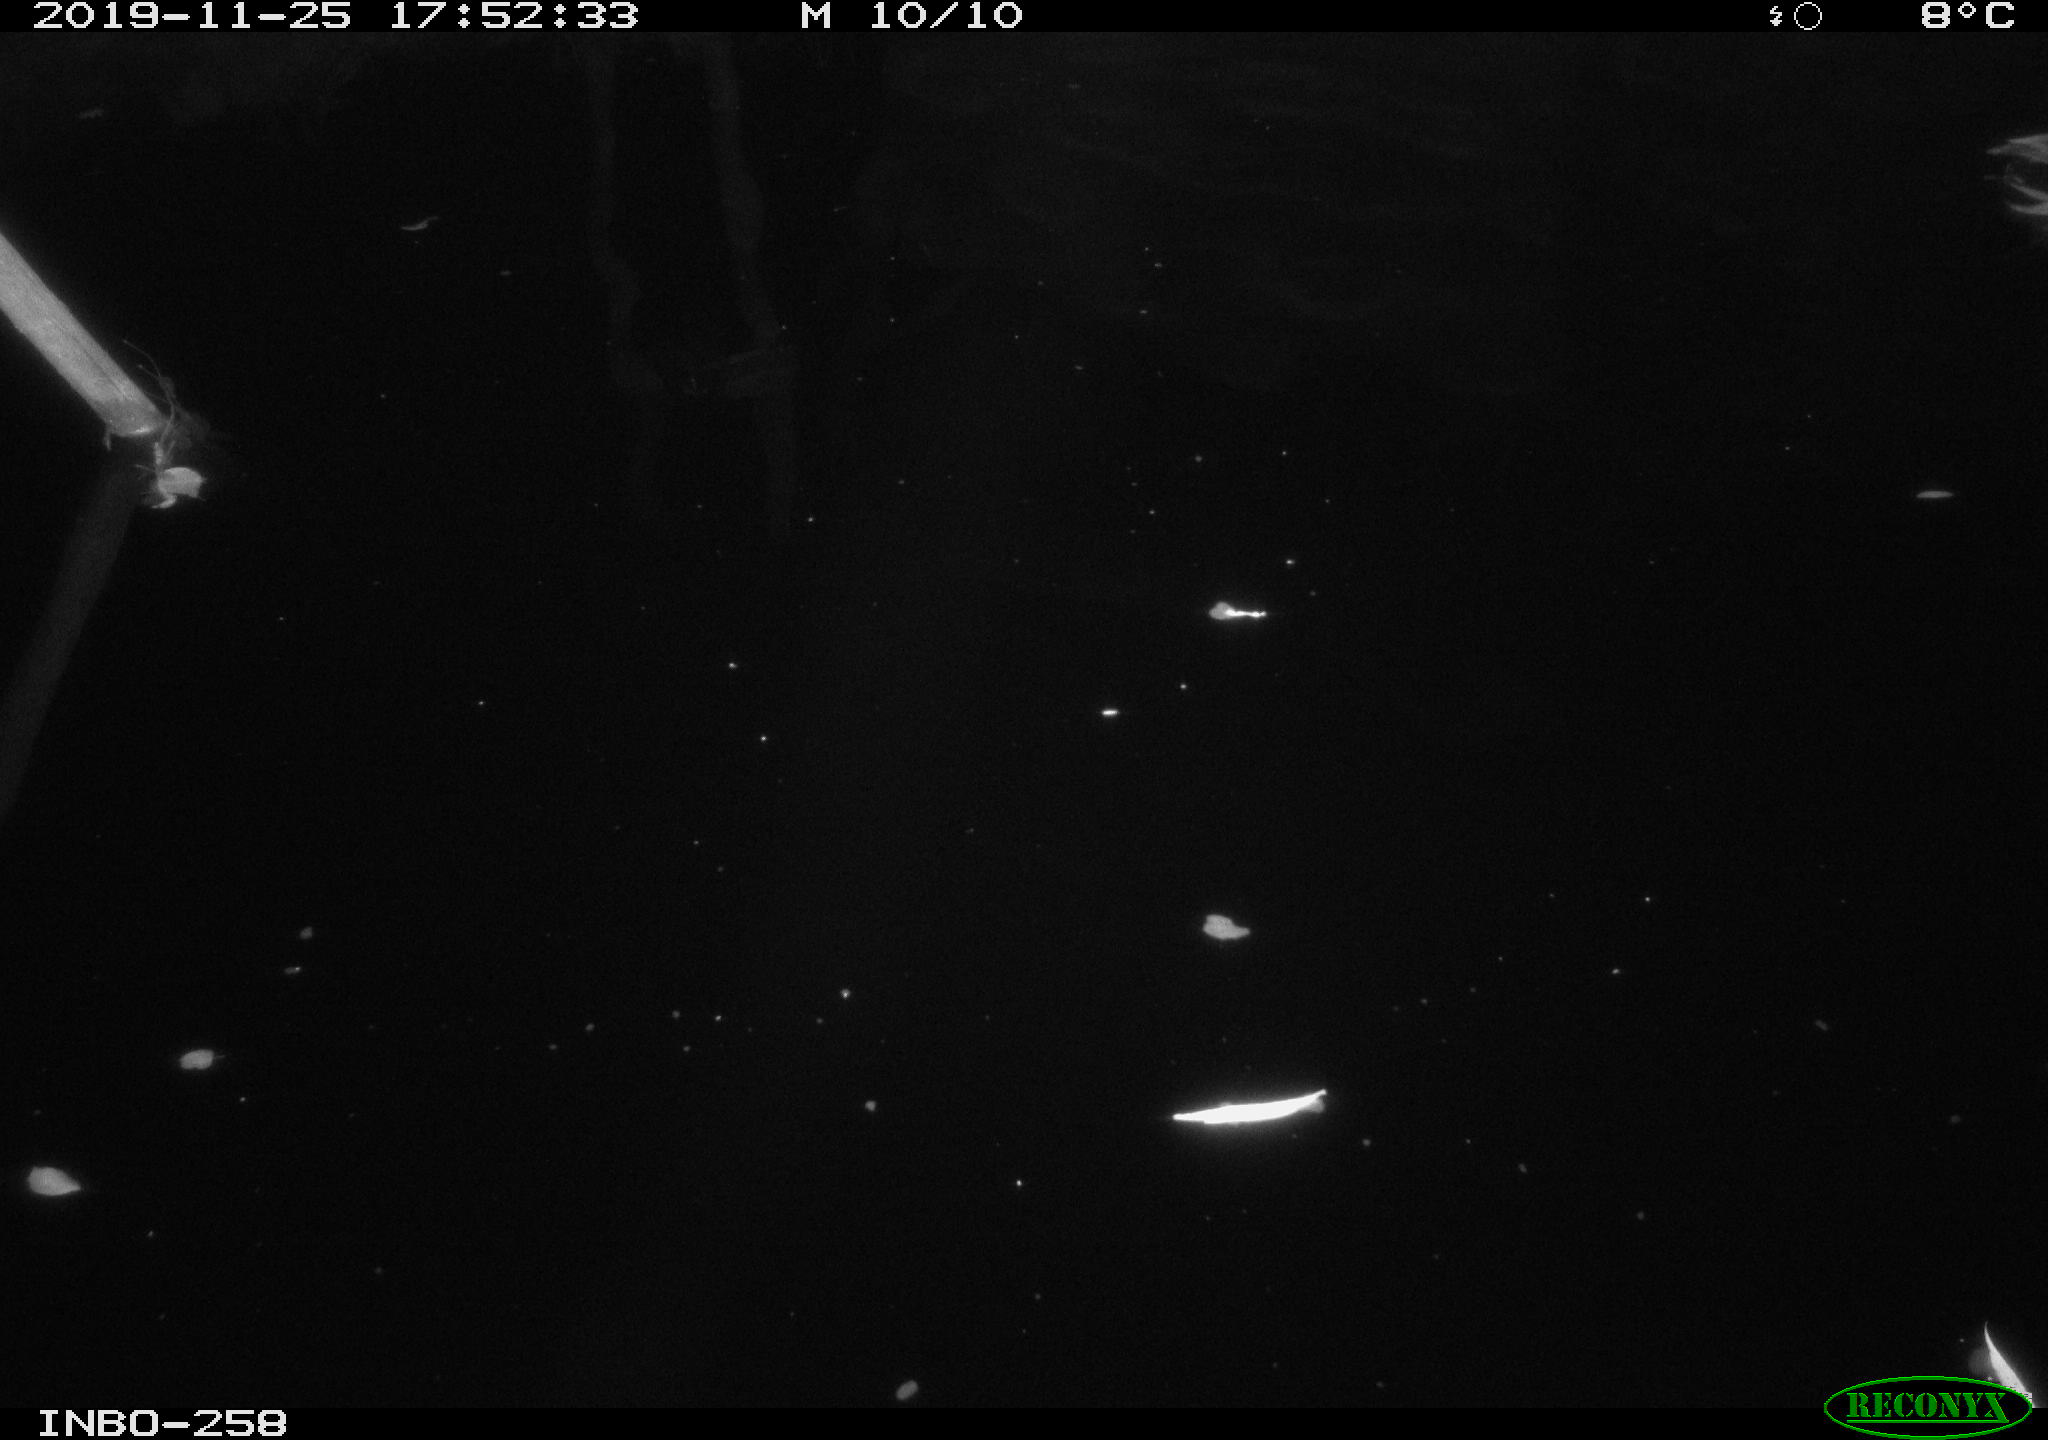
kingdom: Animalia
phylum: Chordata
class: Aves
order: Anseriformes
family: Anatidae
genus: Anas
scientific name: Anas platyrhynchos
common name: Mallard
